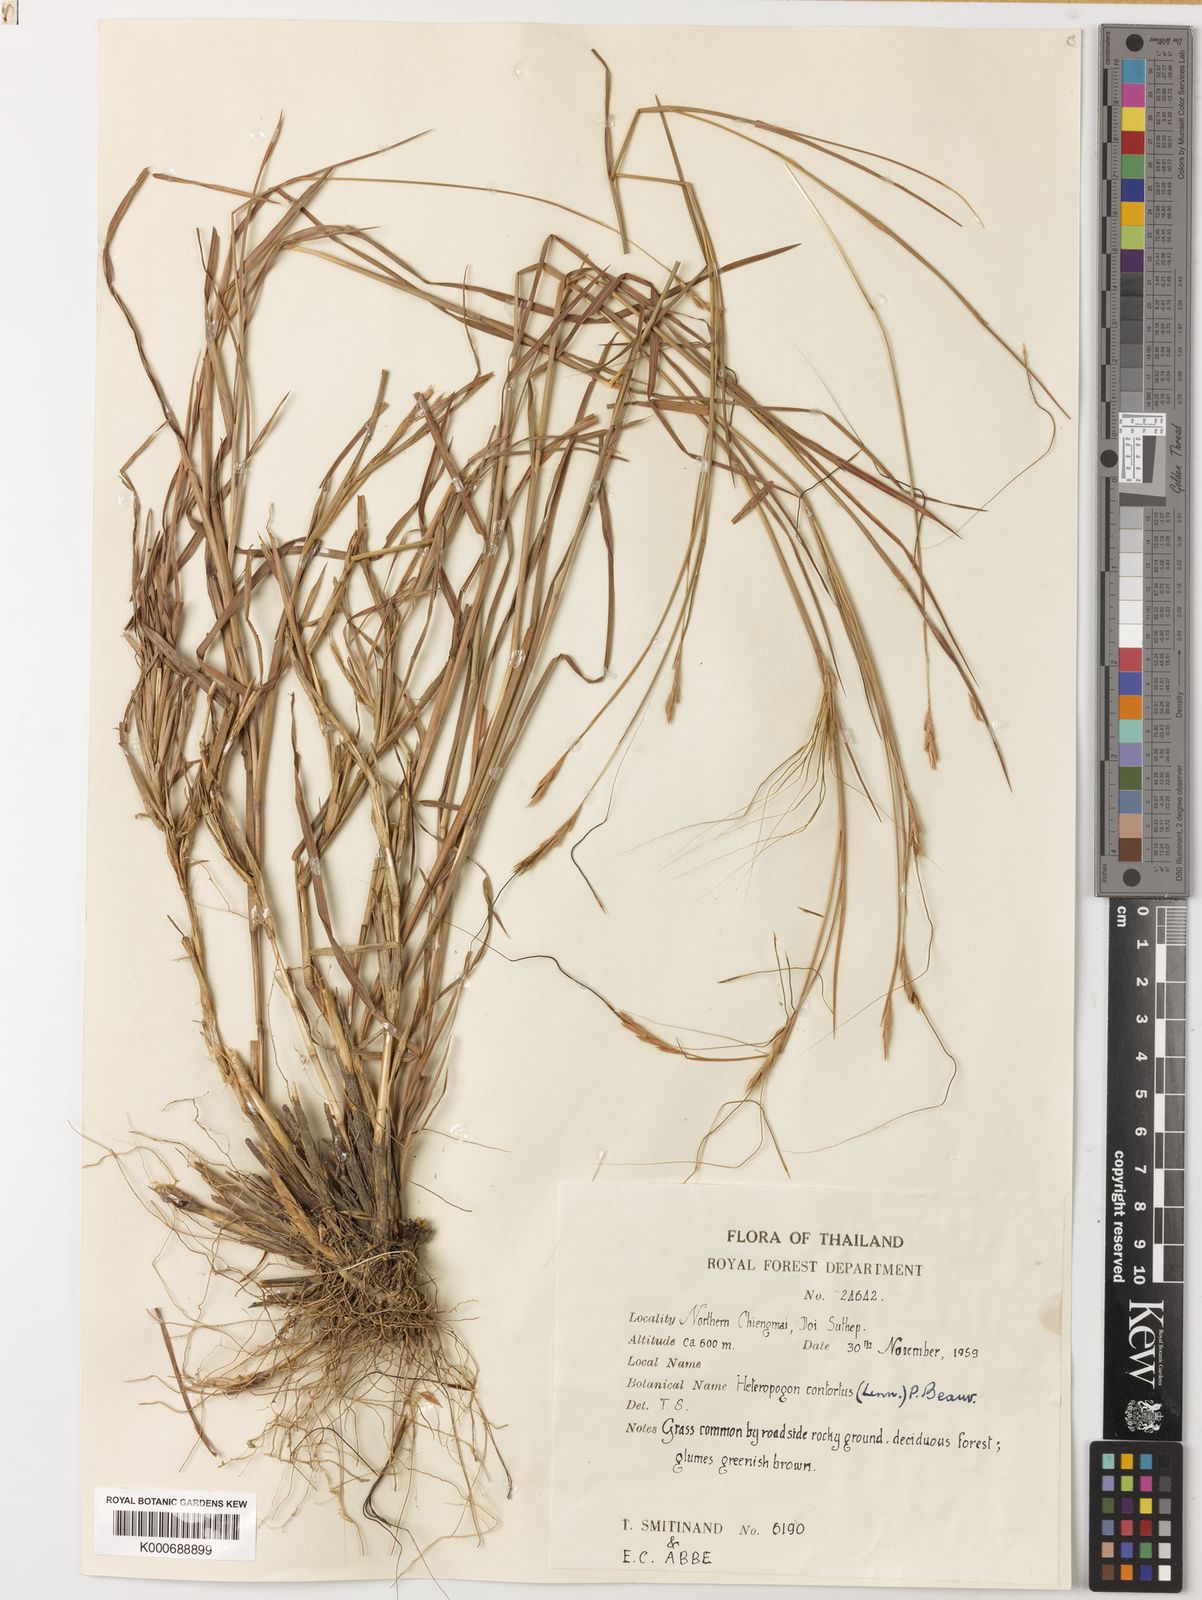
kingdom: Plantae
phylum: Tracheophyta
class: Liliopsida
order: Poales
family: Poaceae
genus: Heteropogon
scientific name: Heteropogon contortus
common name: Tanglehead
